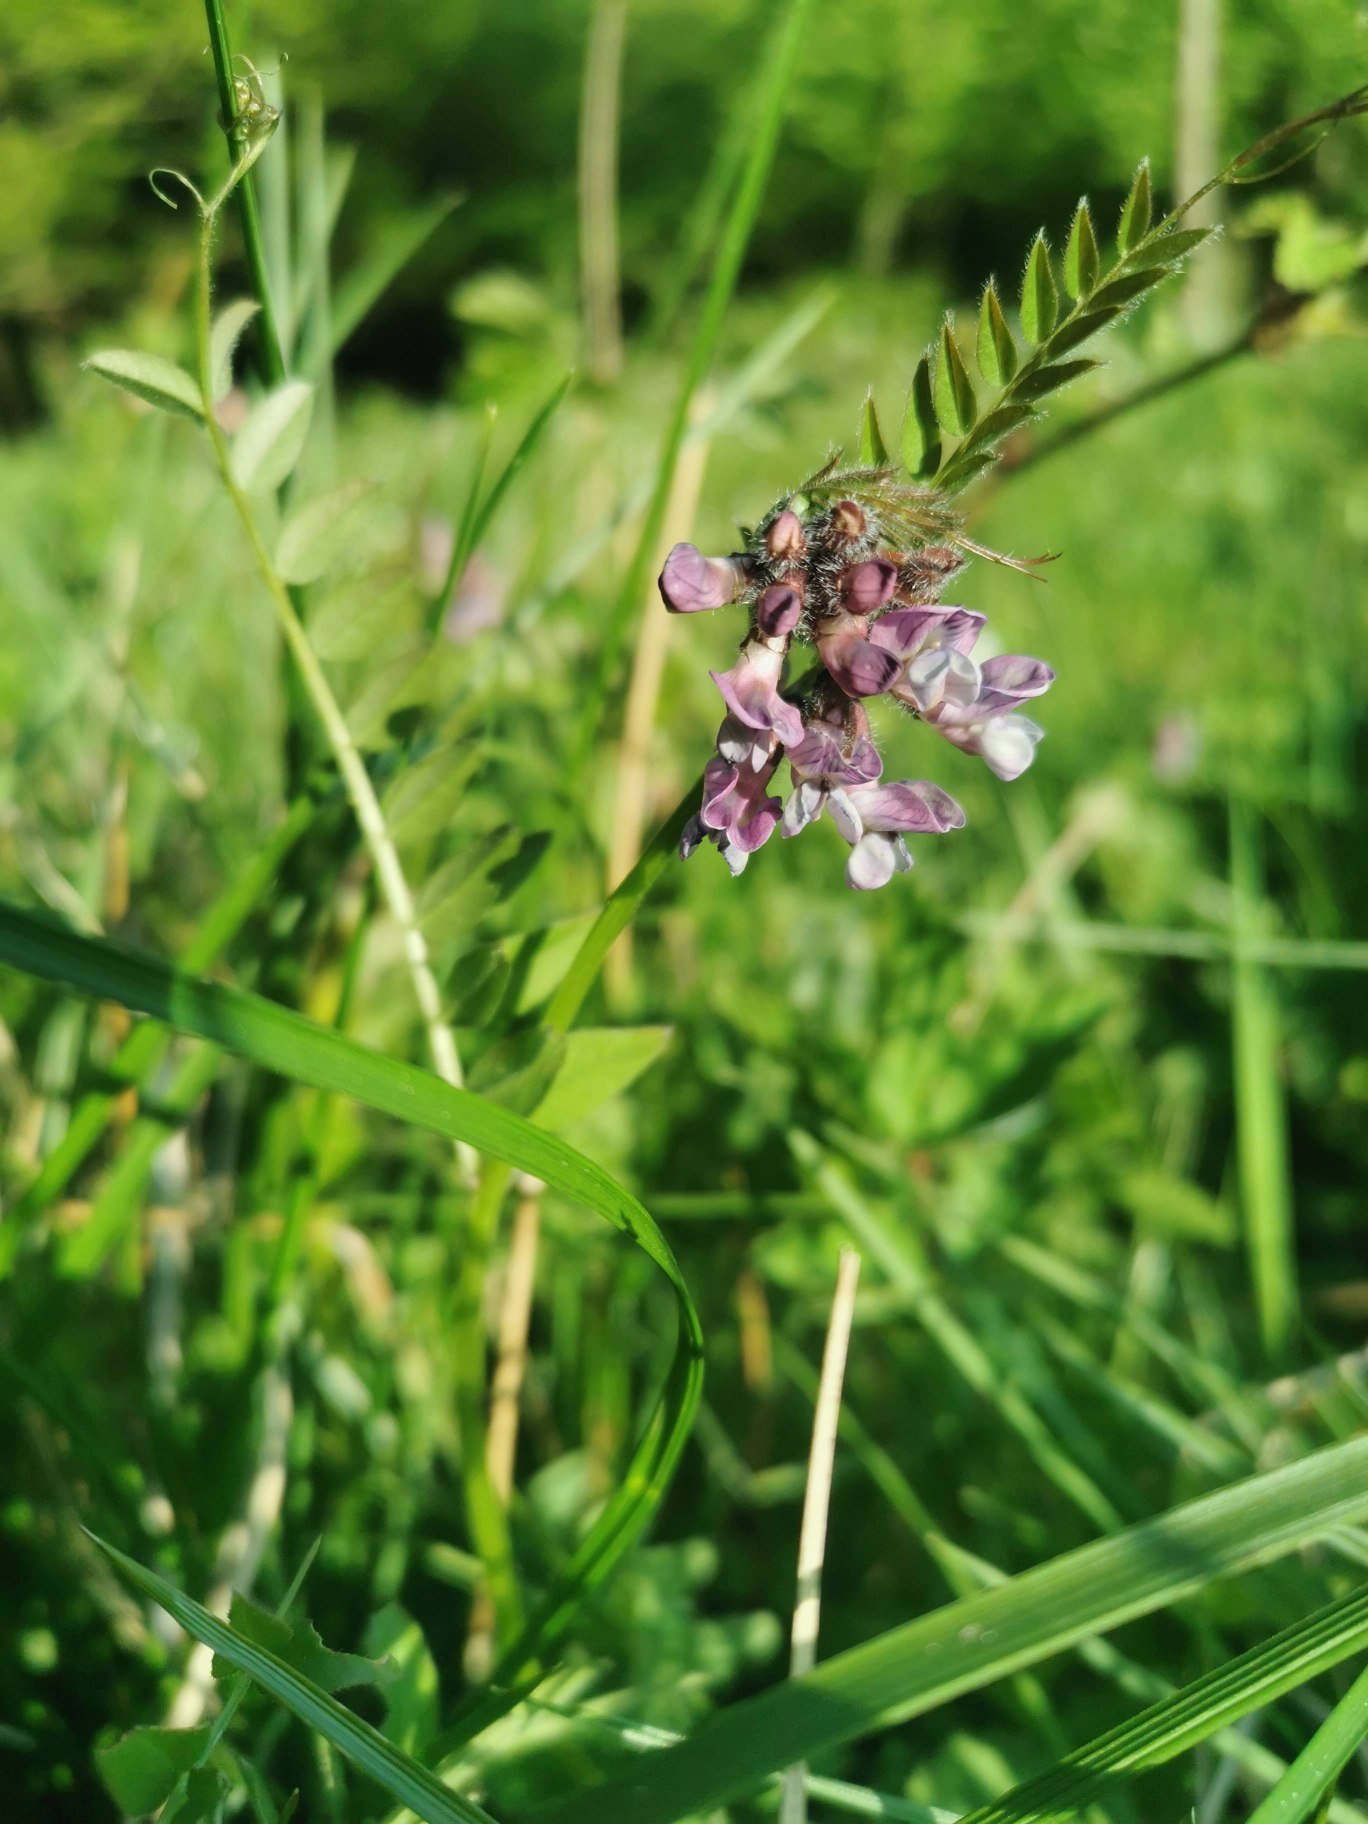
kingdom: Plantae
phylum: Tracheophyta
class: Magnoliopsida
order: Fabales
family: Fabaceae
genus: Vicia
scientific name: Vicia sepium
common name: Gærde-vikke
